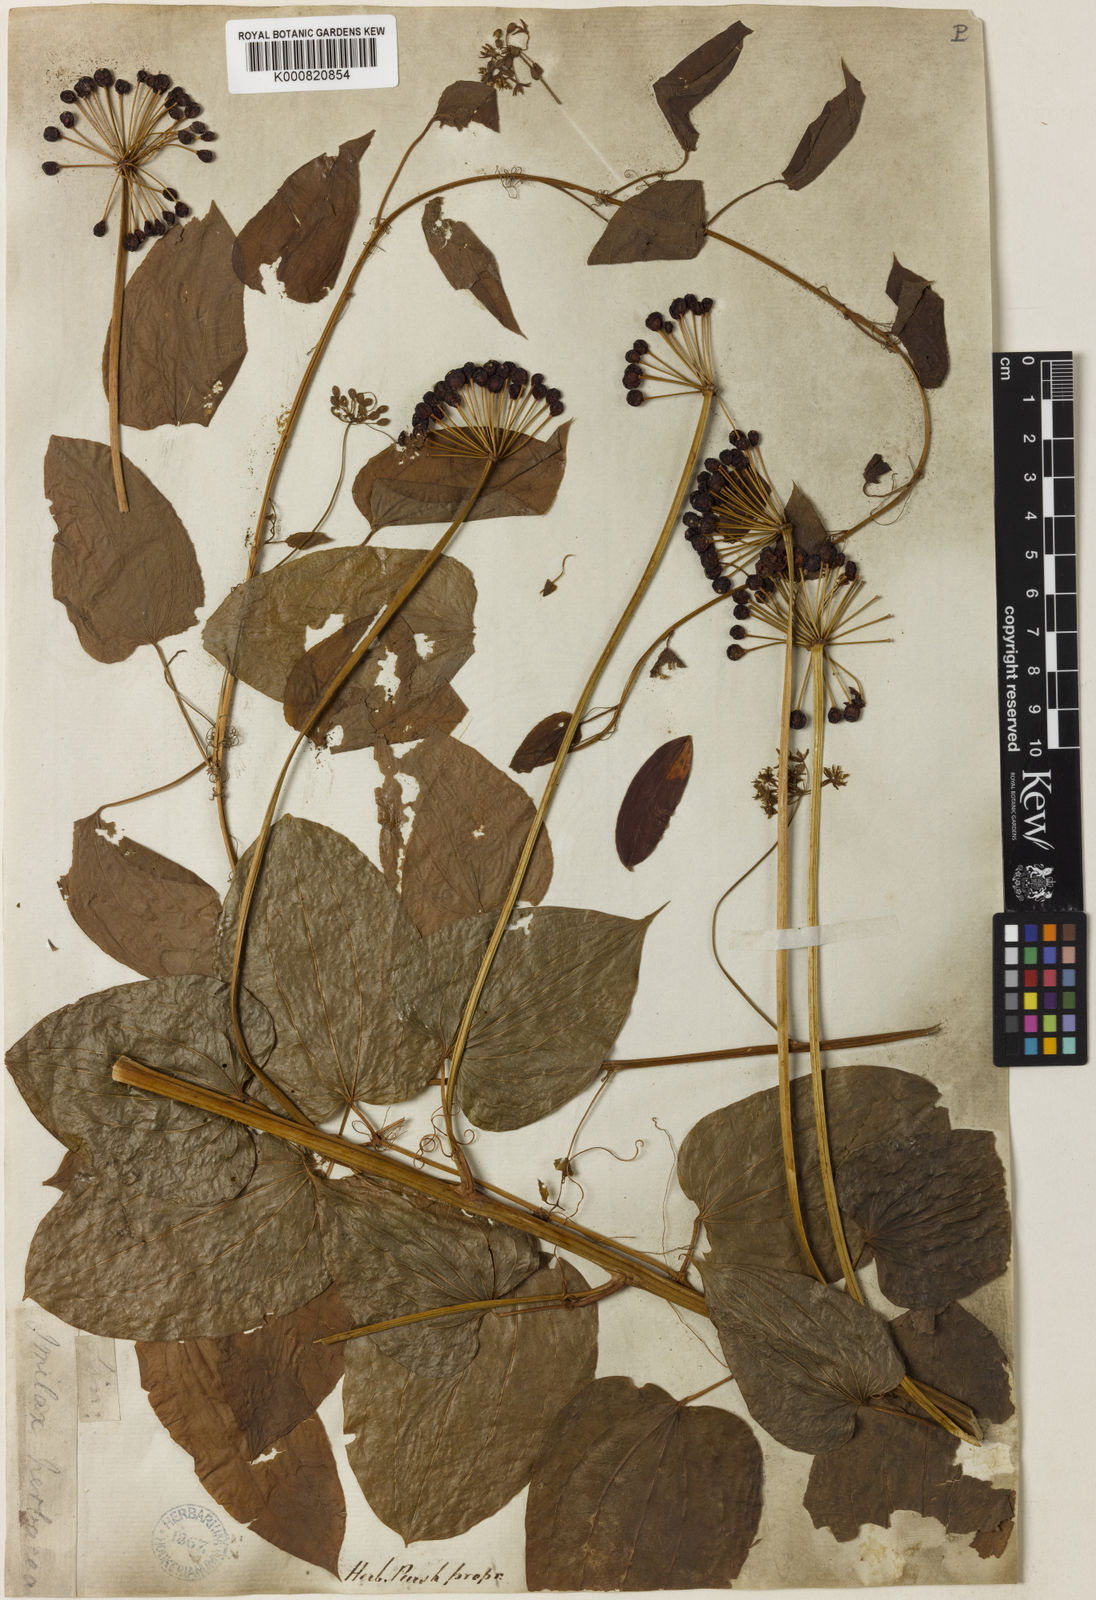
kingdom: Plantae
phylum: Tracheophyta
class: Liliopsida
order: Liliales
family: Smilacaceae
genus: Smilax
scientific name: Smilax herbacea
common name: Jacob's-ladder
